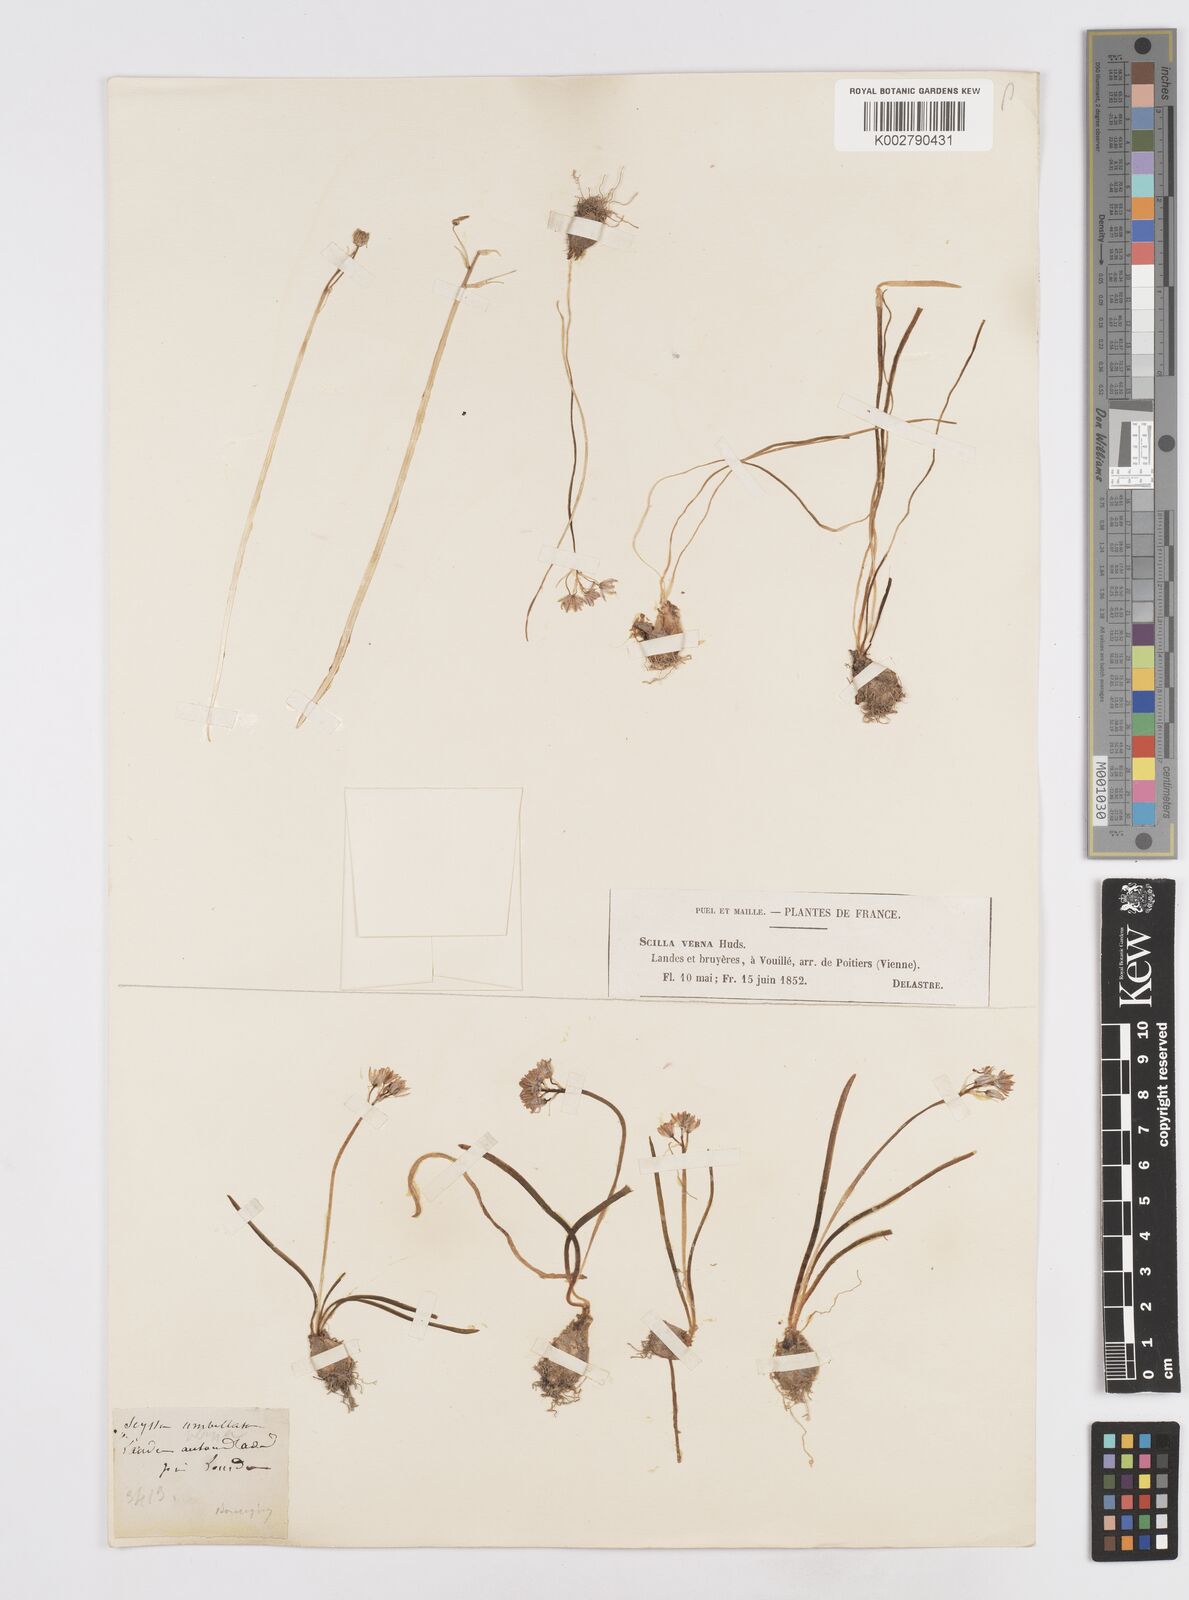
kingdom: Plantae
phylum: Tracheophyta
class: Liliopsida
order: Asparagales
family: Asparagaceae
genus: Scilla
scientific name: Scilla verna
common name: Spring squill
